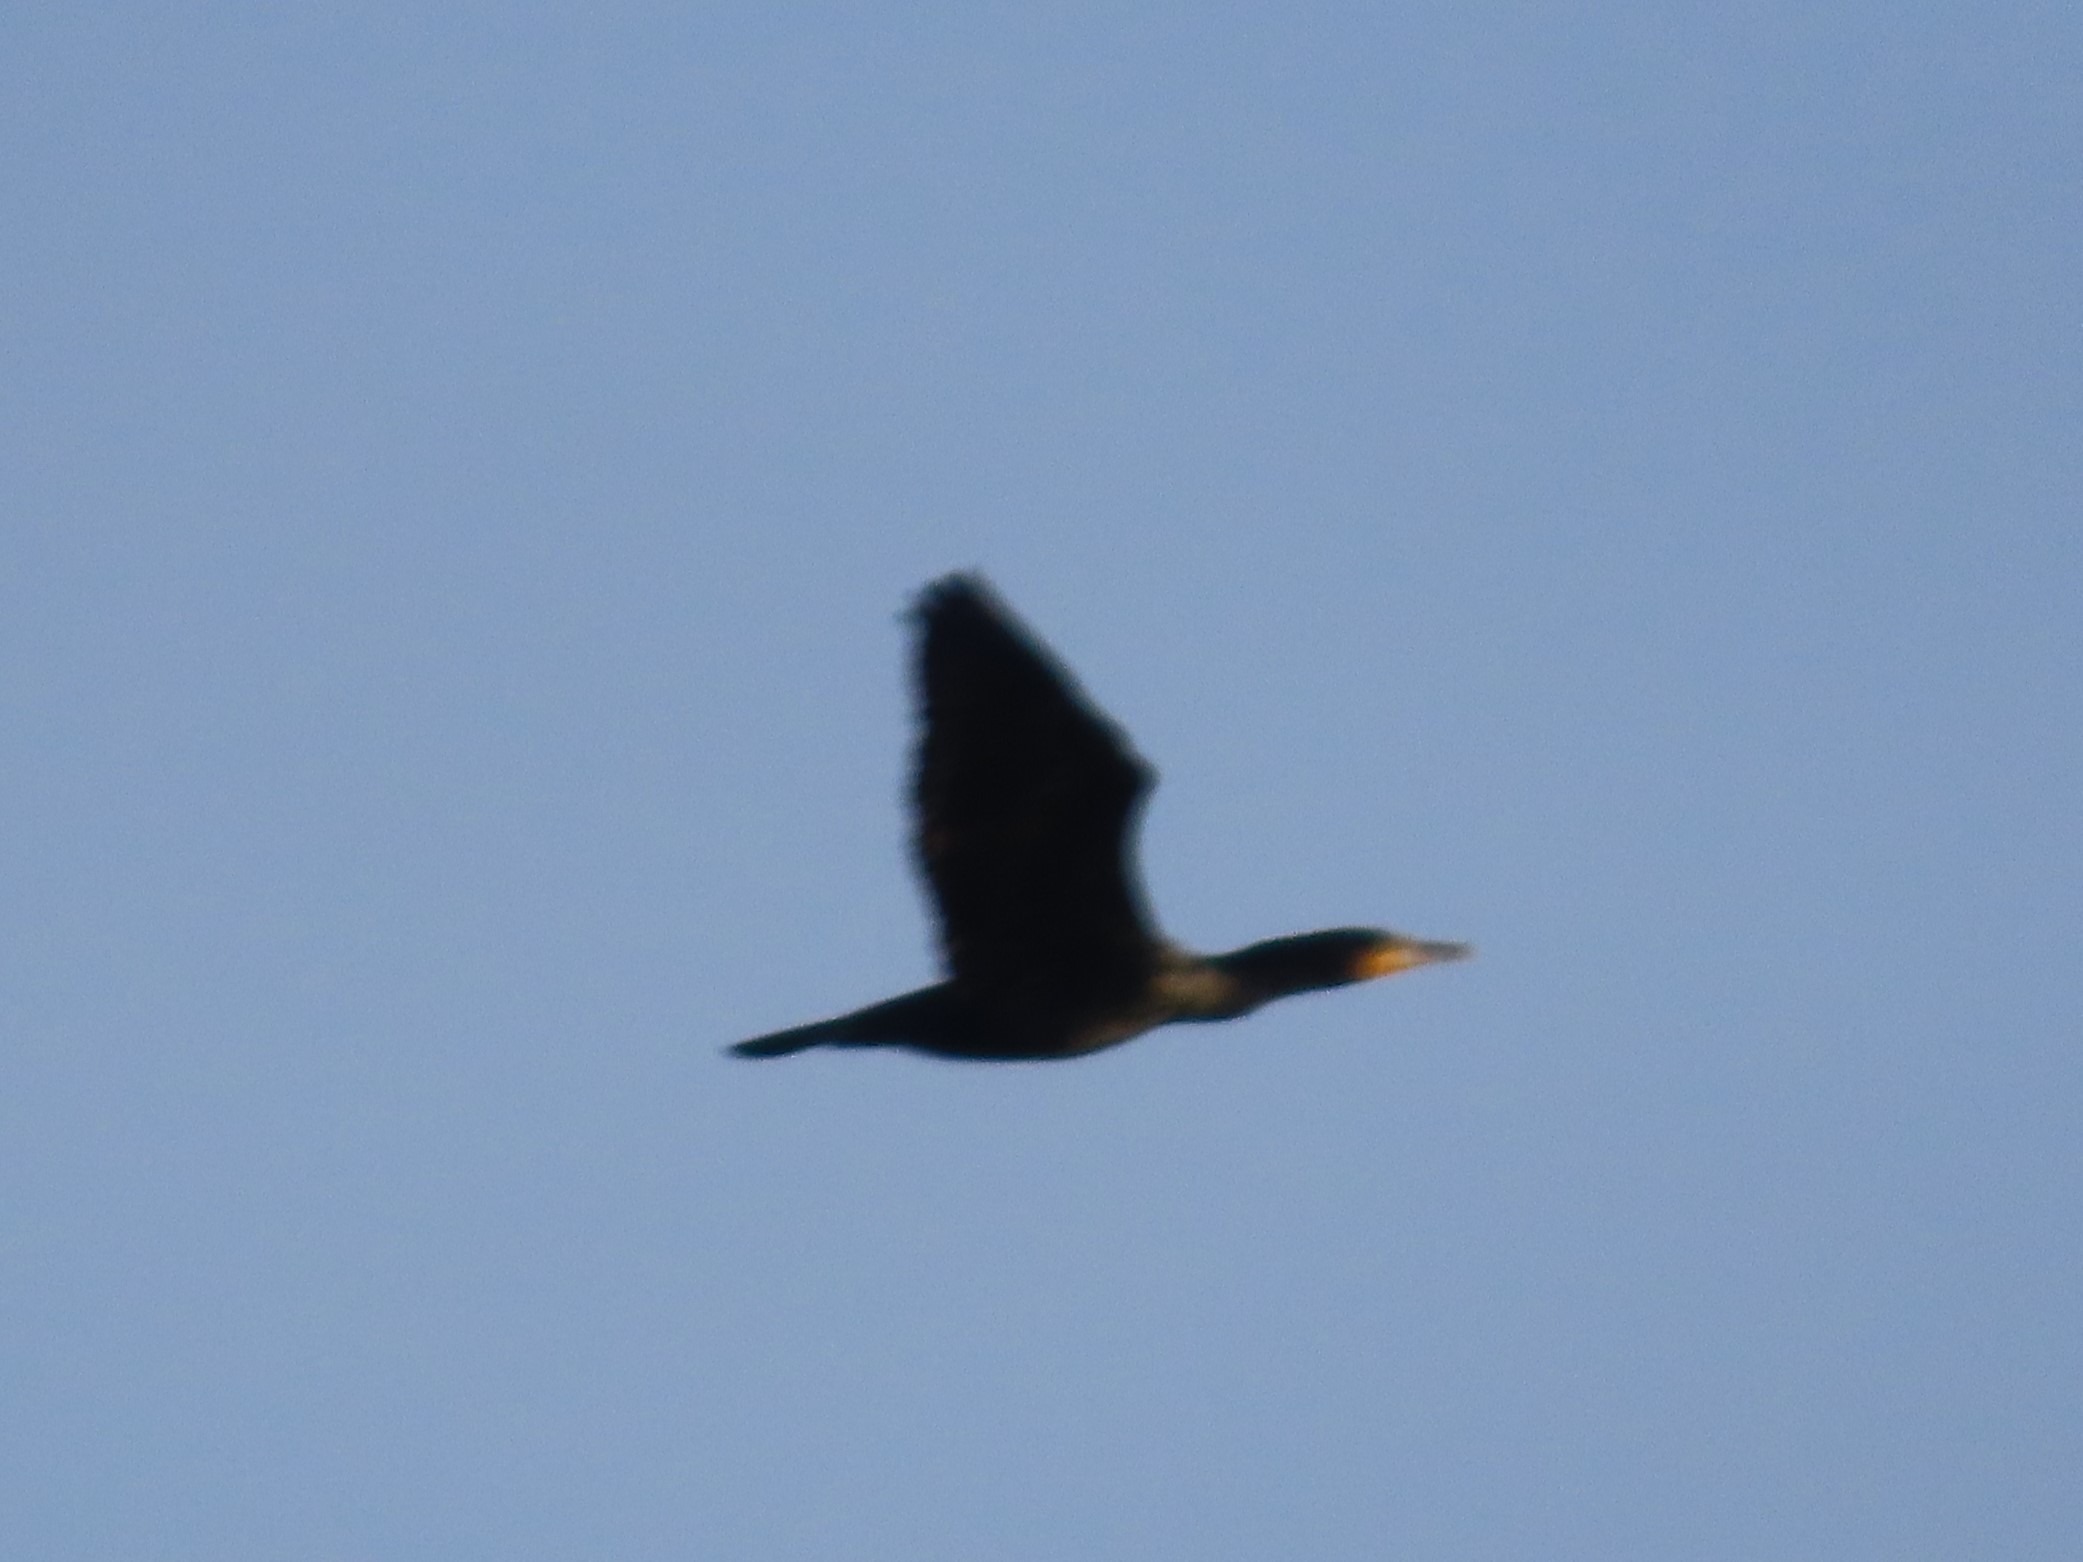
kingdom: Animalia
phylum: Chordata
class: Aves
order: Suliformes
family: Phalacrocoracidae
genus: Phalacrocorax
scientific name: Phalacrocorax carbo
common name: Skarv
